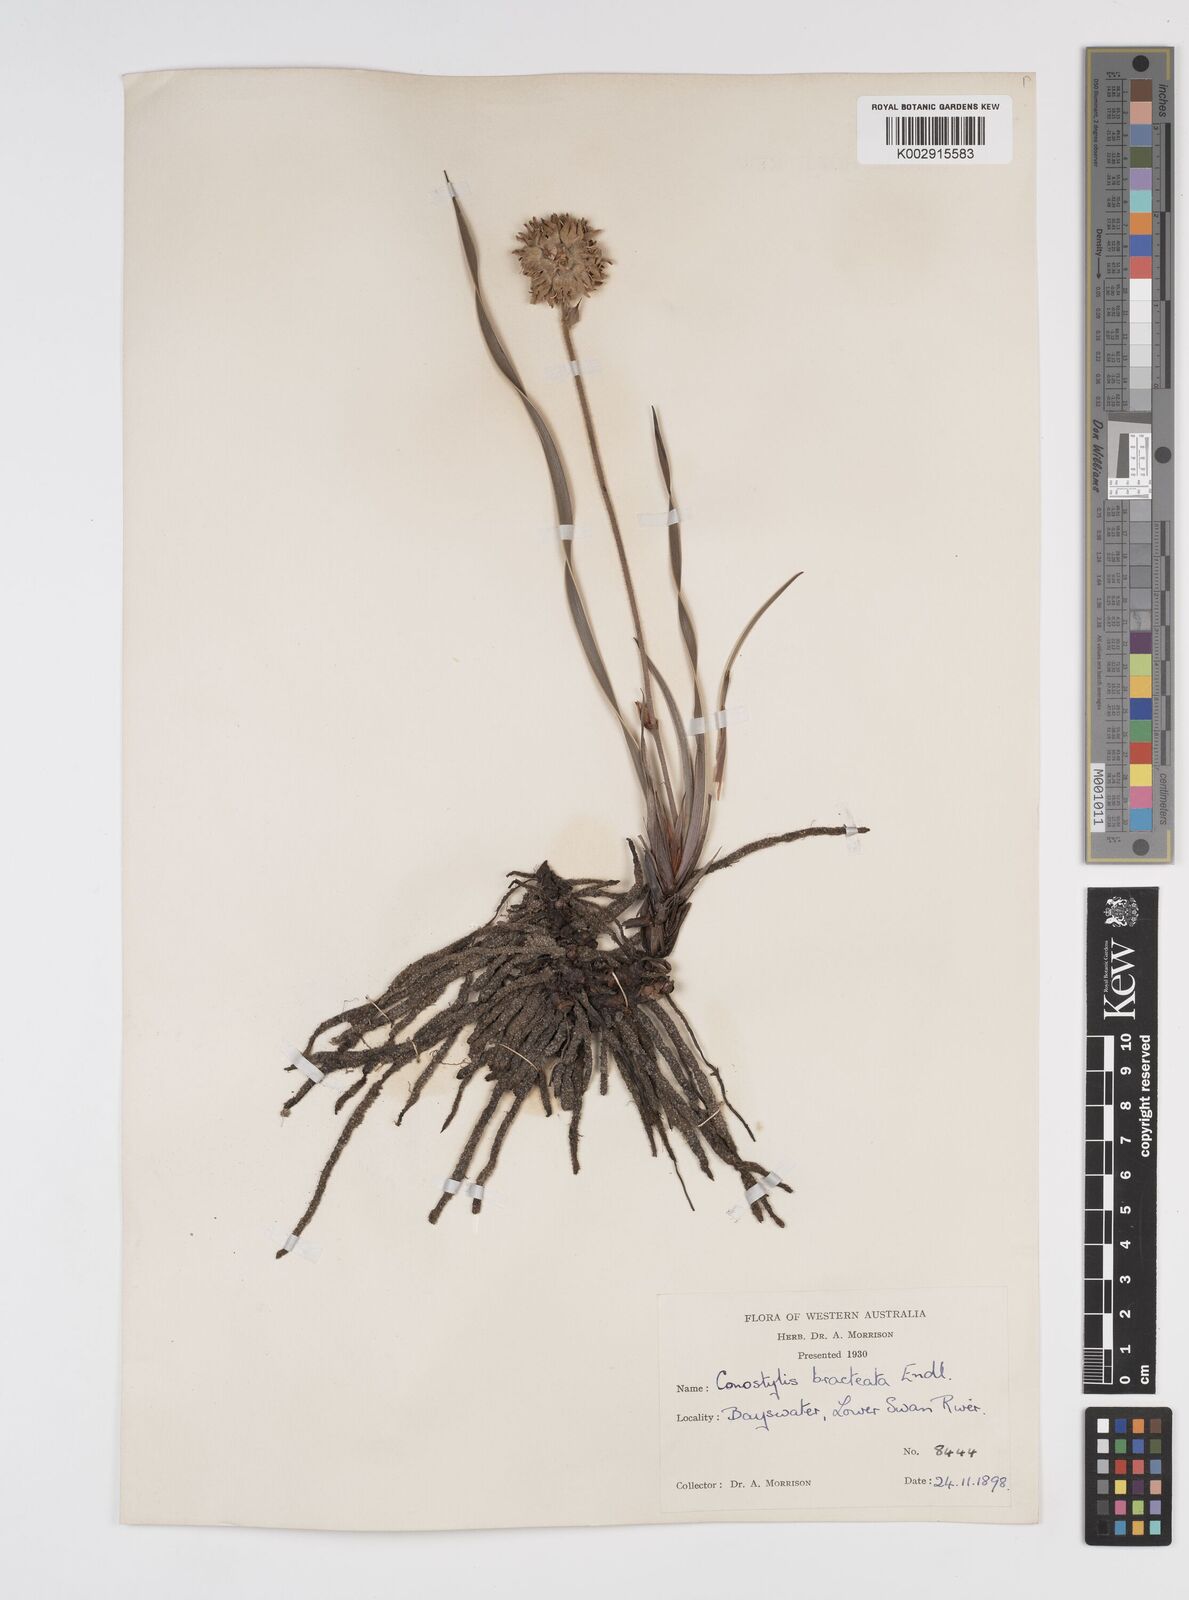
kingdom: Plantae
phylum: Tracheophyta
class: Liliopsida
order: Commelinales
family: Haemodoraceae
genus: Conostylis
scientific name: Conostylis bracteata
